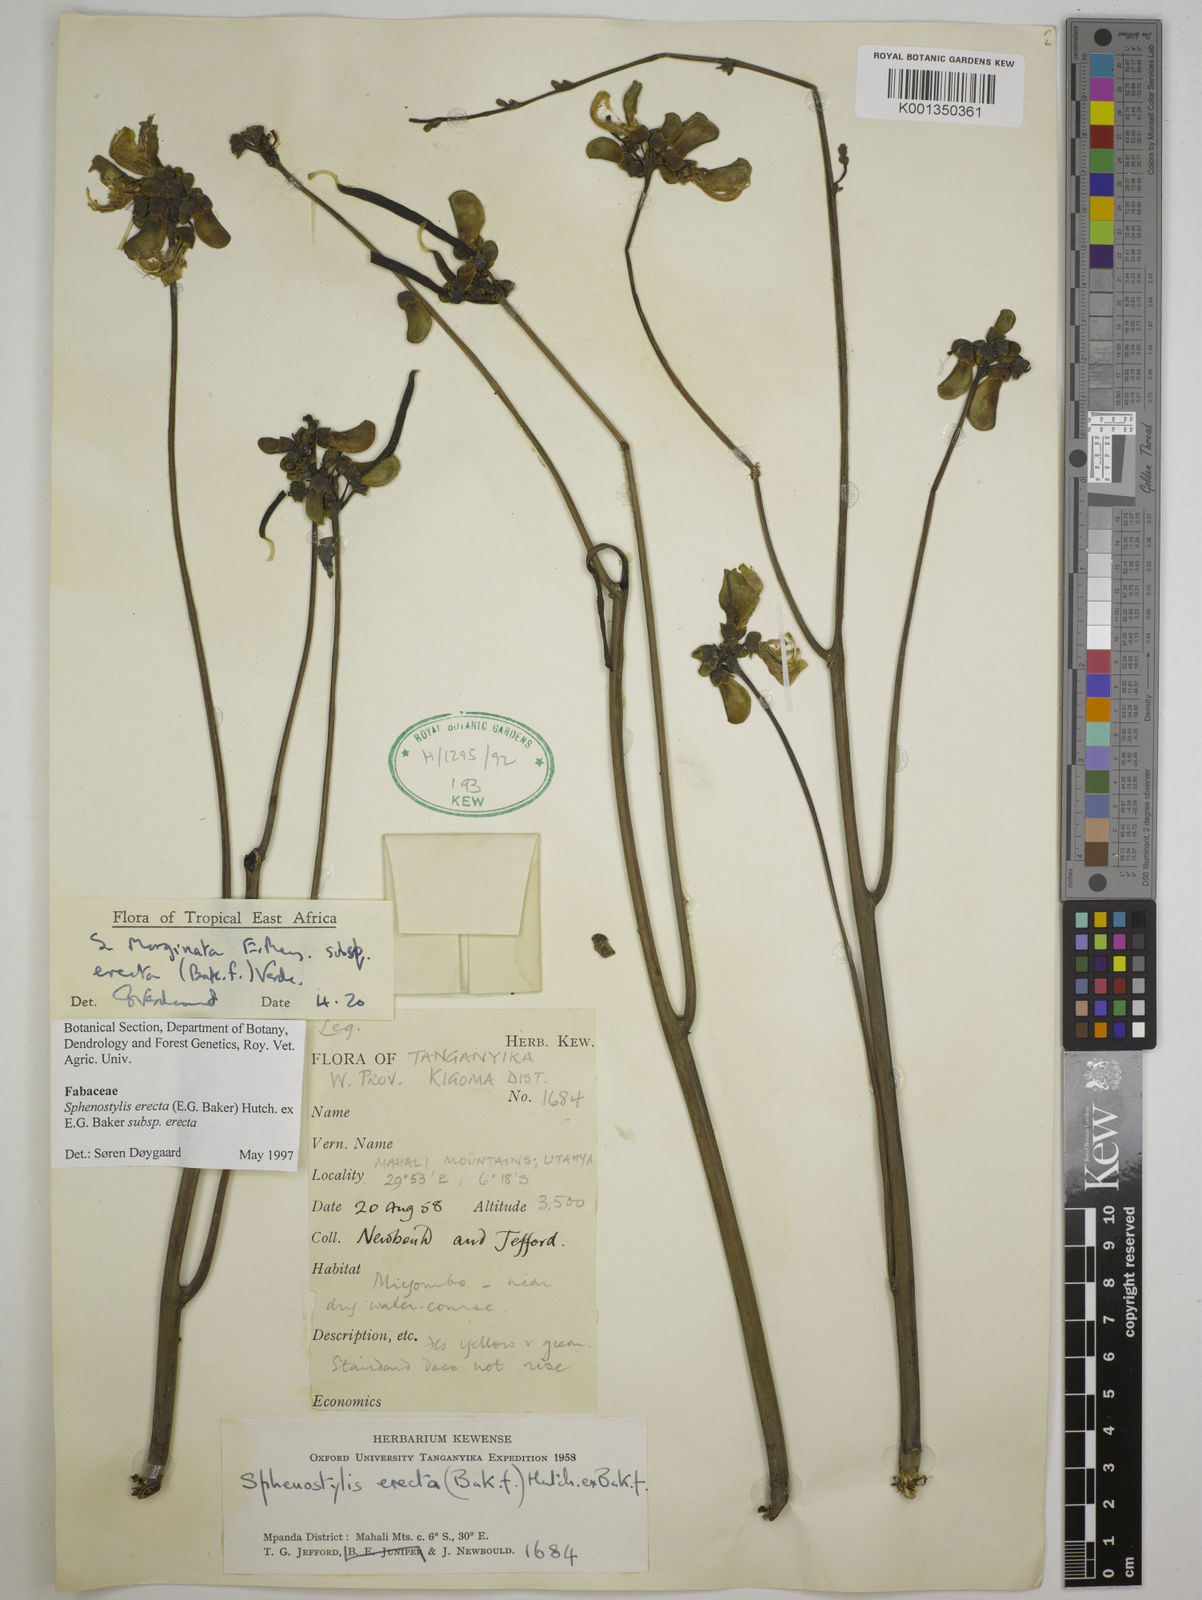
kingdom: Plantae
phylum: Tracheophyta
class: Magnoliopsida
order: Fabales
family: Fabaceae
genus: Sphenostylis
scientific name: Sphenostylis erecta
